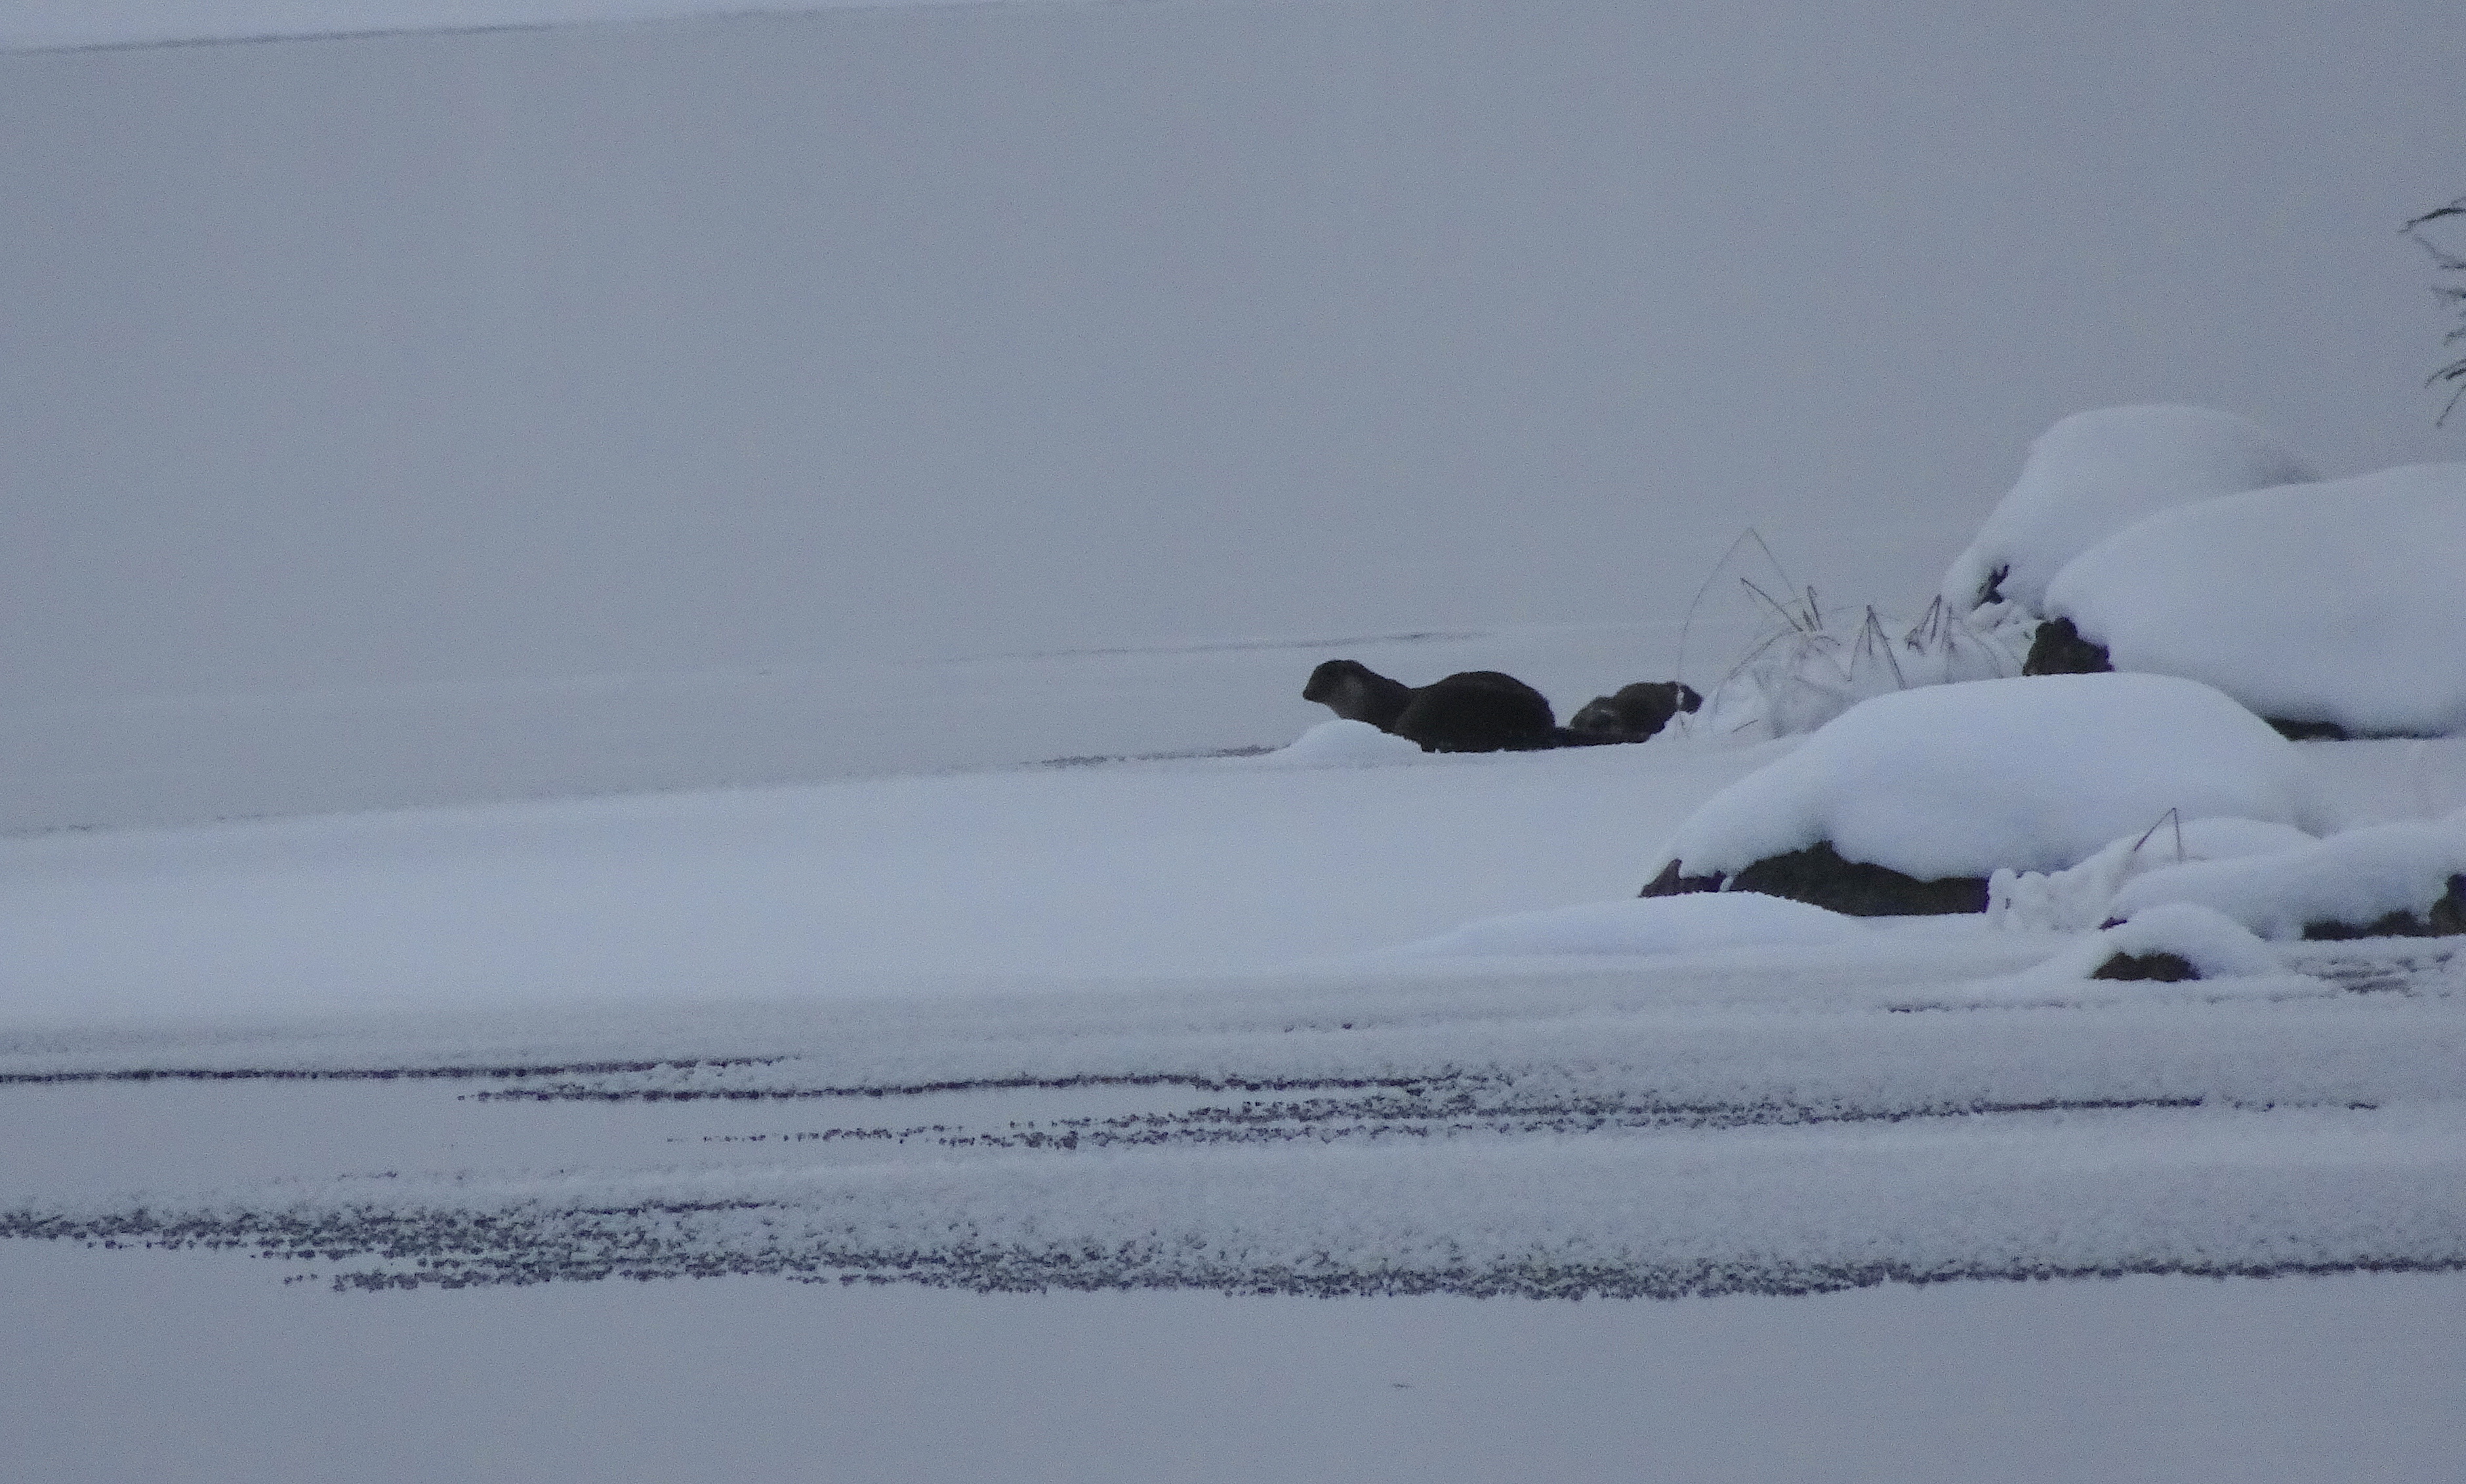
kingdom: Animalia
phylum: Chordata
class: Mammalia
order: Carnivora
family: Mustelidae
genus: Lutra
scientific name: Lutra lutra
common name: European otter
